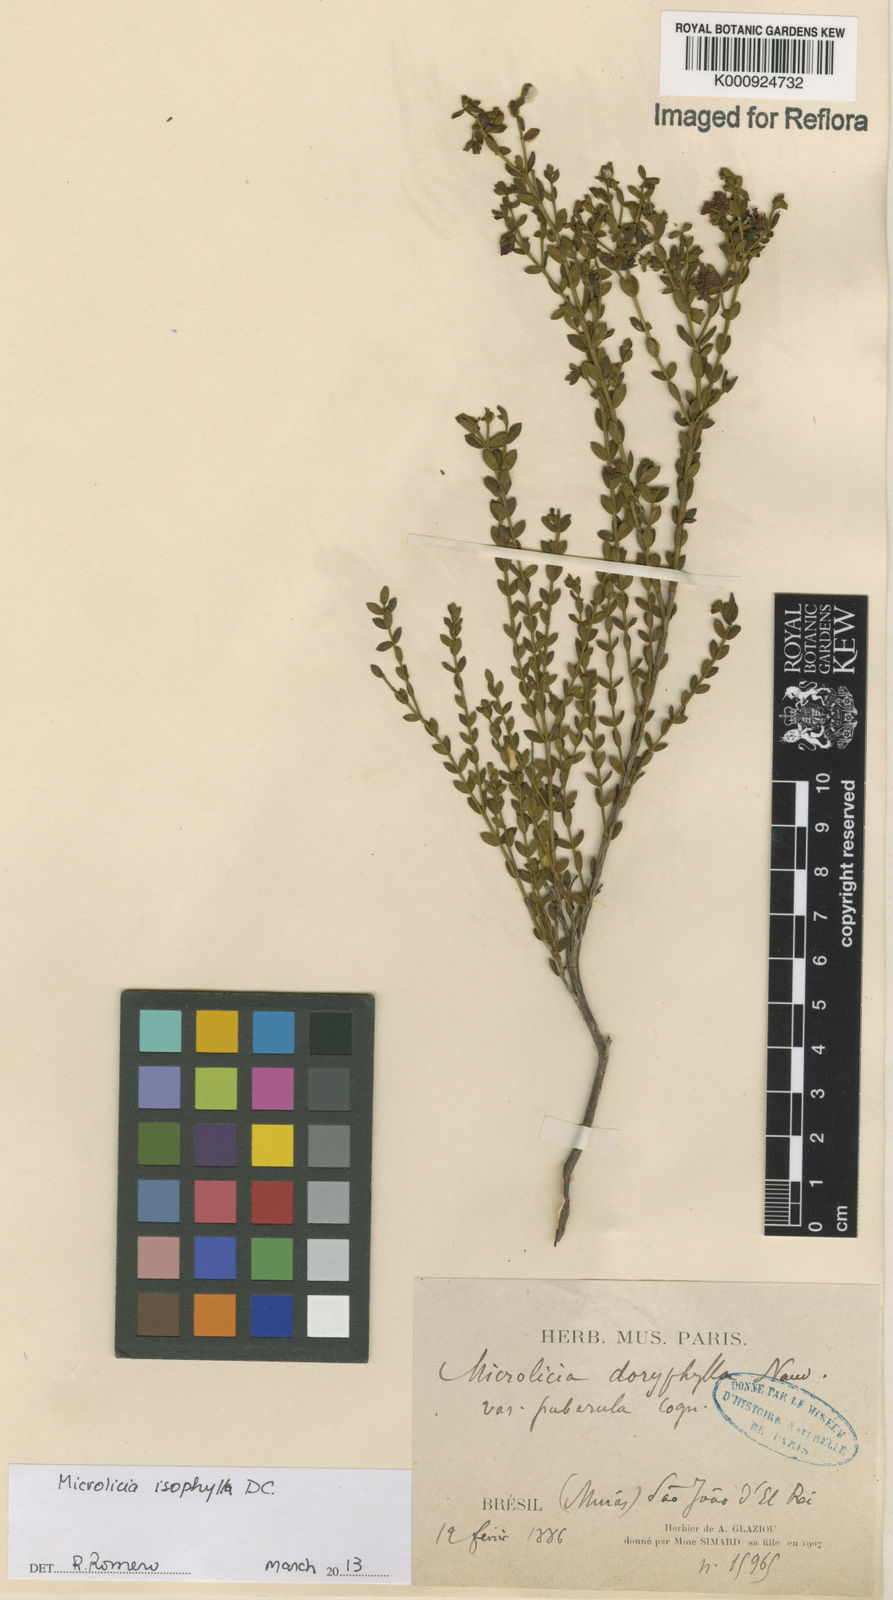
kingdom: Plantae
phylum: Tracheophyta
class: Magnoliopsida
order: Myrtales
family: Melastomataceae
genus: Microlicia
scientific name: Microlicia isophylla
